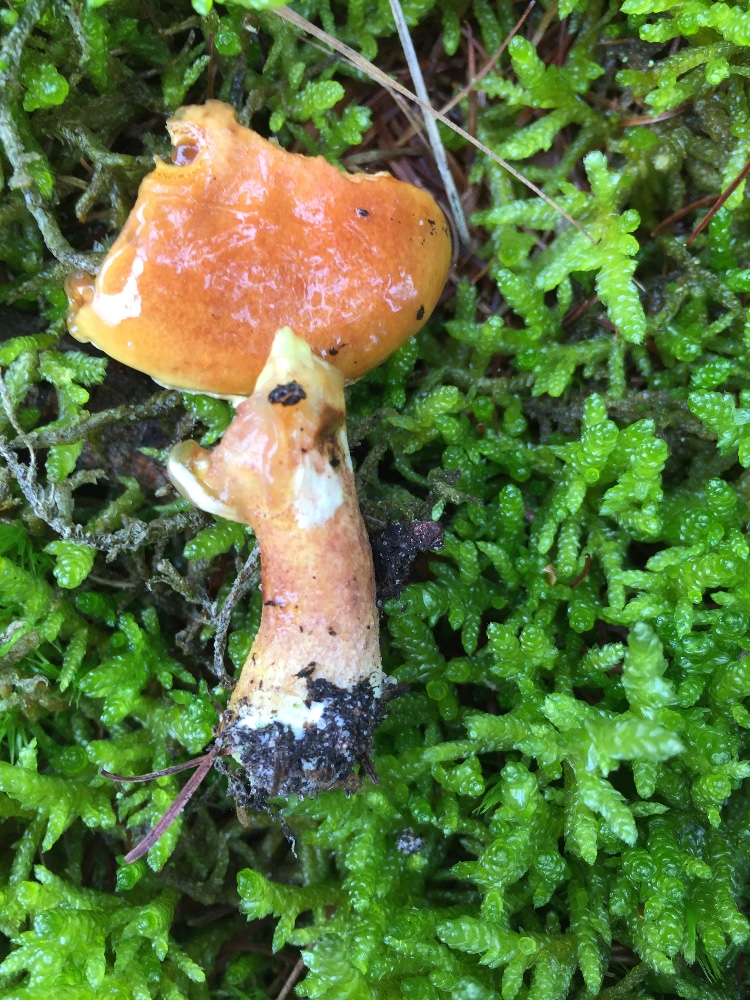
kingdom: Fungi
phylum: Basidiomycota
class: Agaricomycetes
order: Boletales
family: Suillaceae
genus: Suillus
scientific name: Suillus grevillei
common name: lærke-slimrørhat
